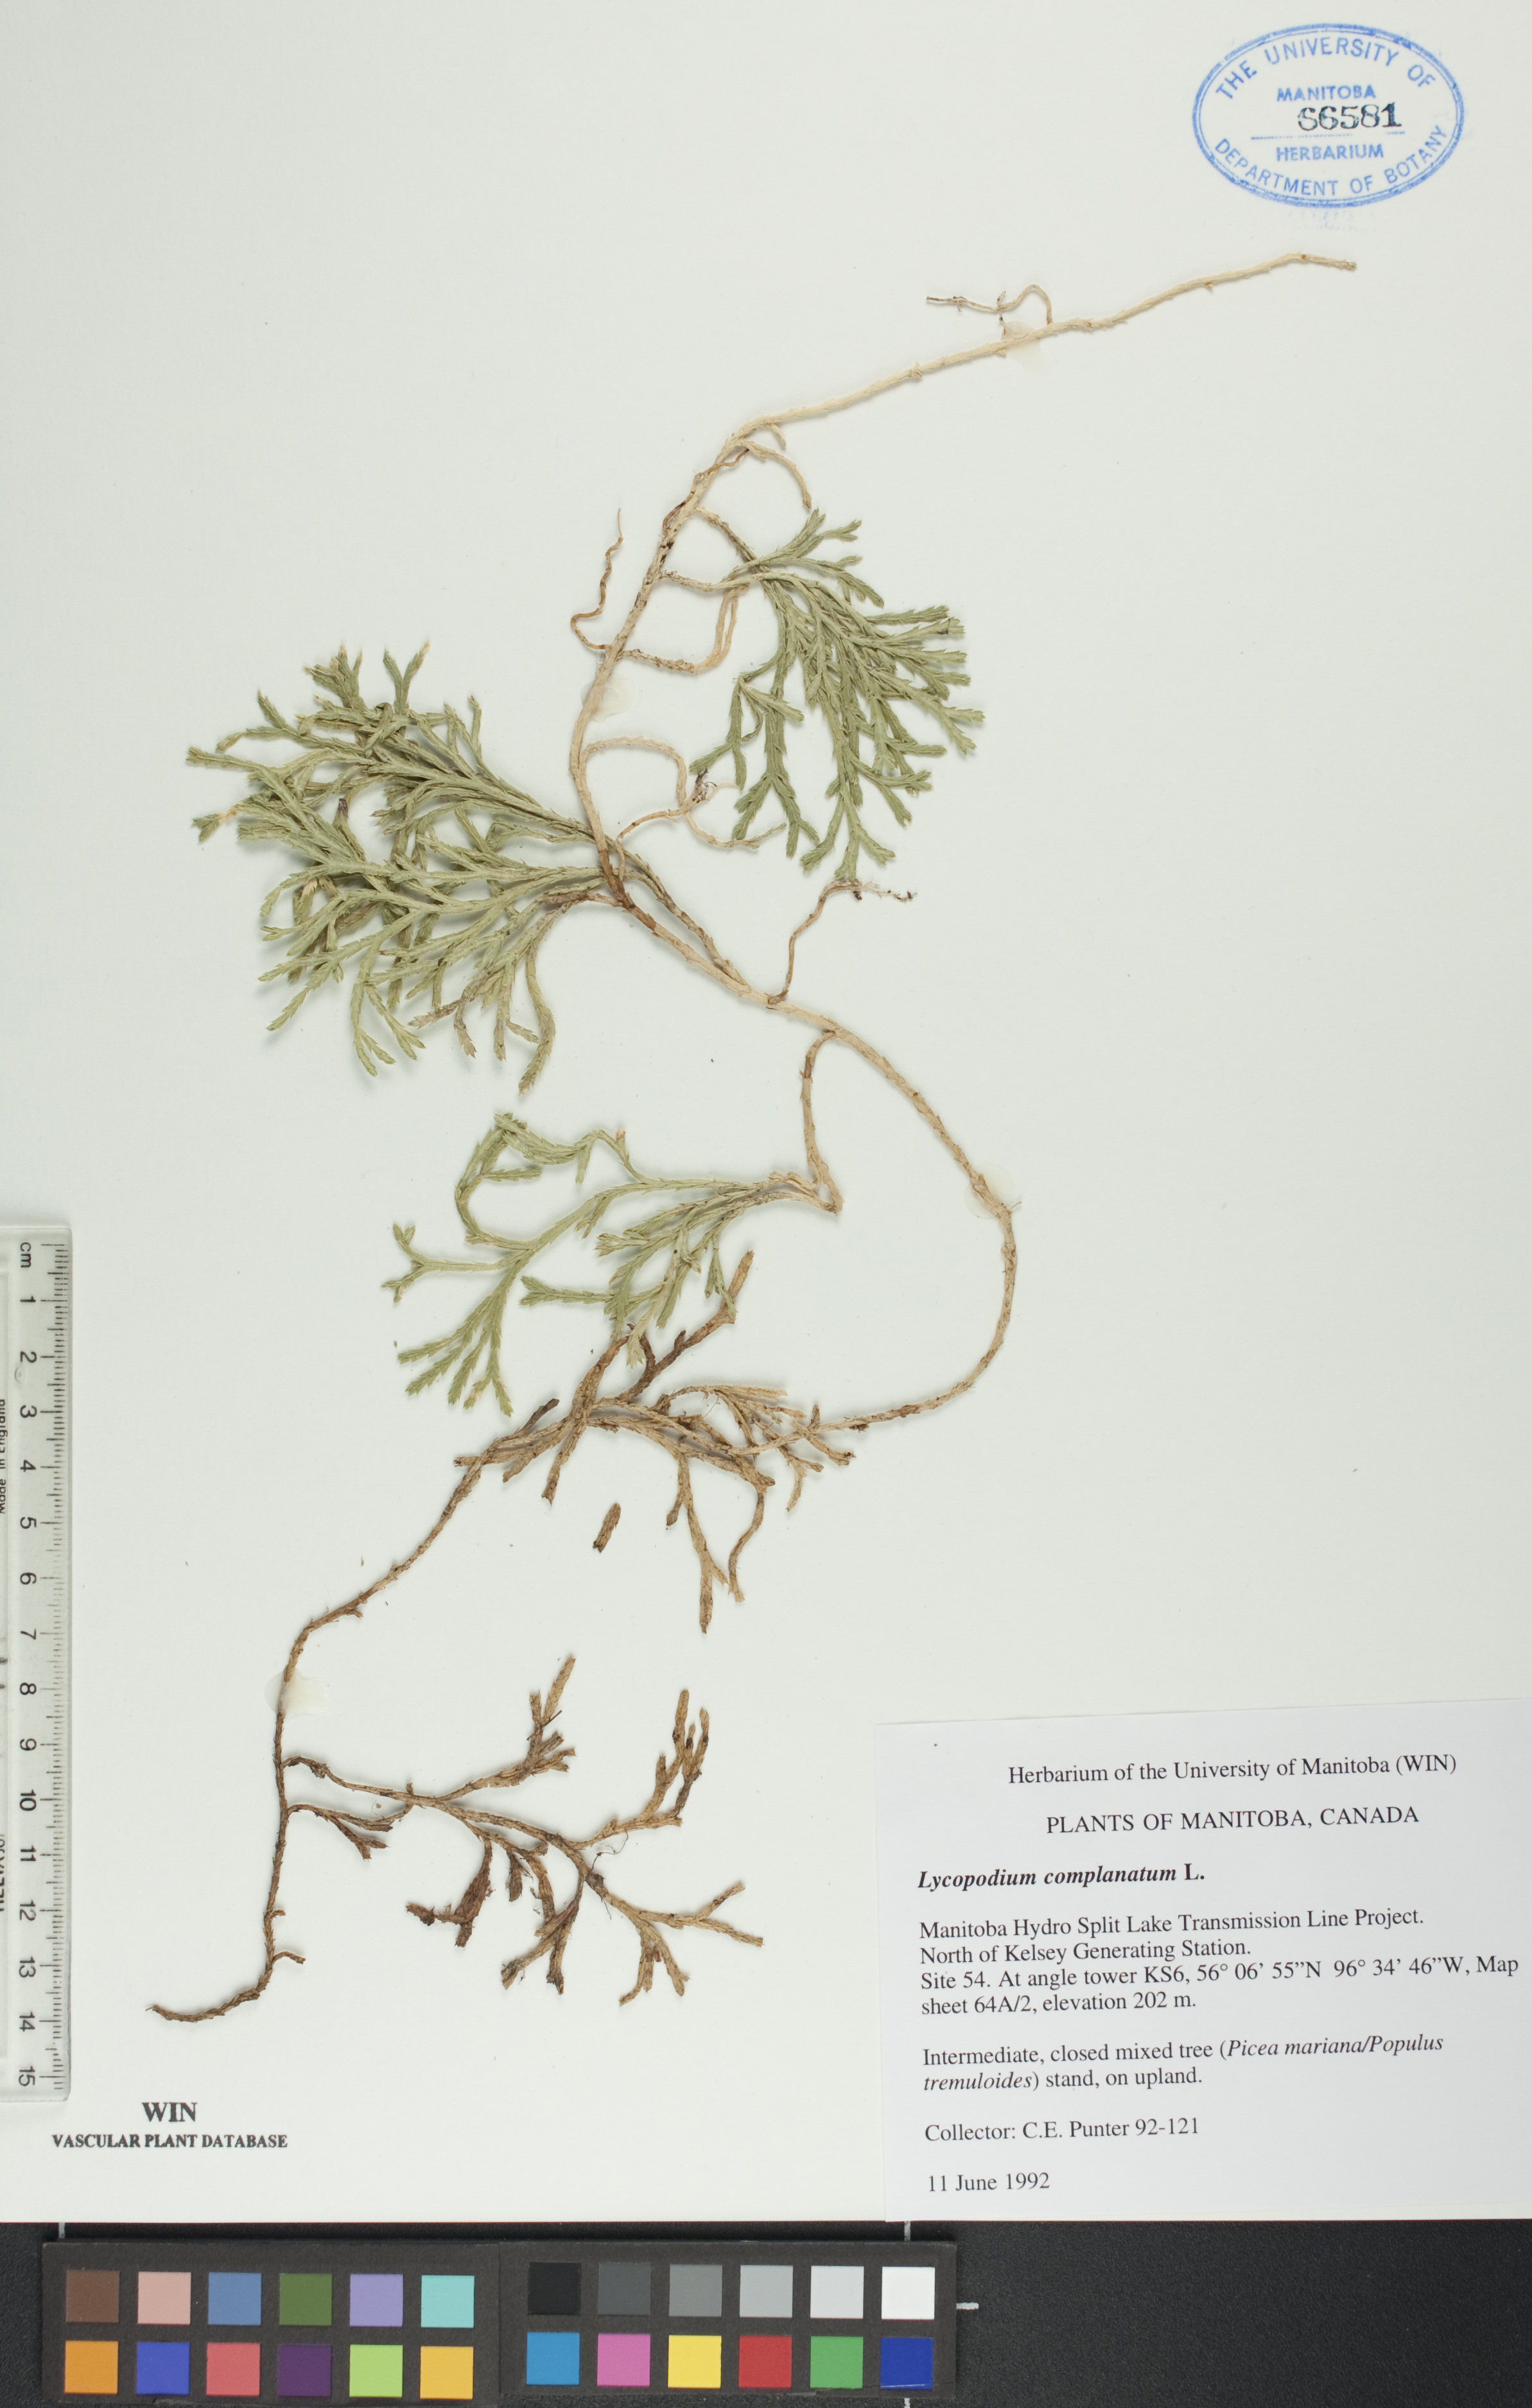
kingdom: Plantae
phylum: Tracheophyta
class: Lycopodiopsida
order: Lycopodiales
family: Lycopodiaceae
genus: Diphasiastrum
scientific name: Diphasiastrum
